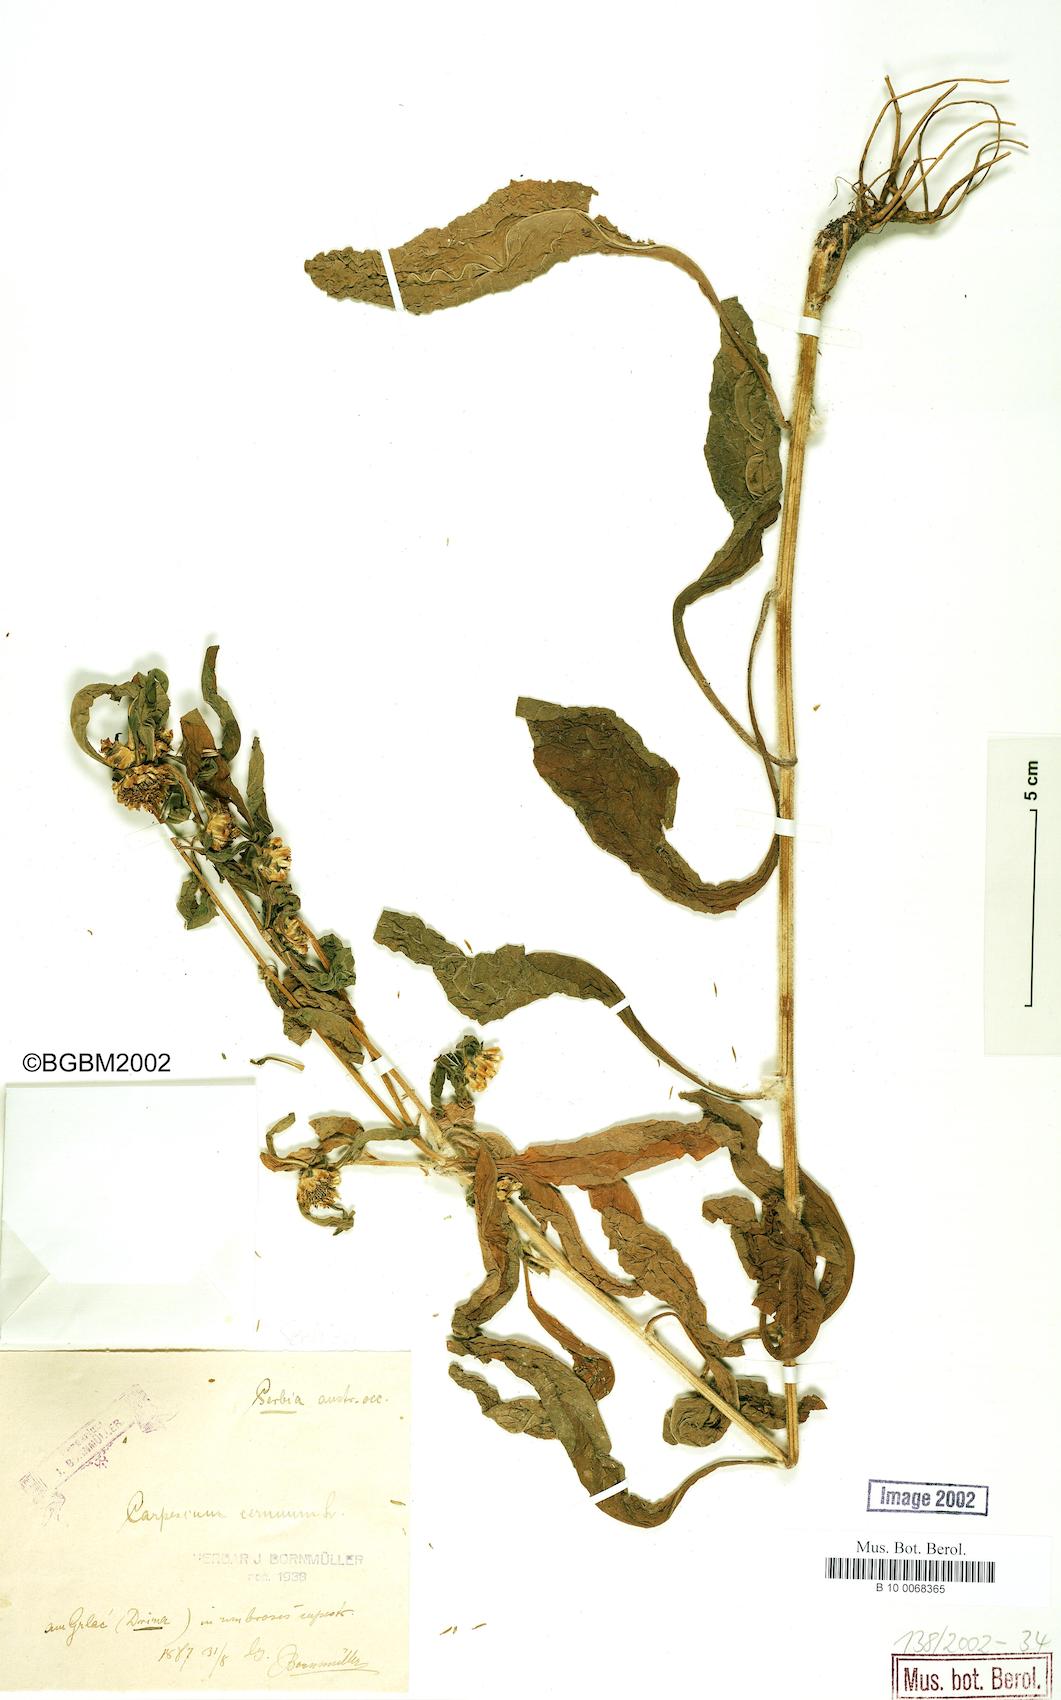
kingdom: Plantae
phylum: Tracheophyta
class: Magnoliopsida
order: Asterales
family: Asteraceae
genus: Carpesium
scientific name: Carpesium cernuum
